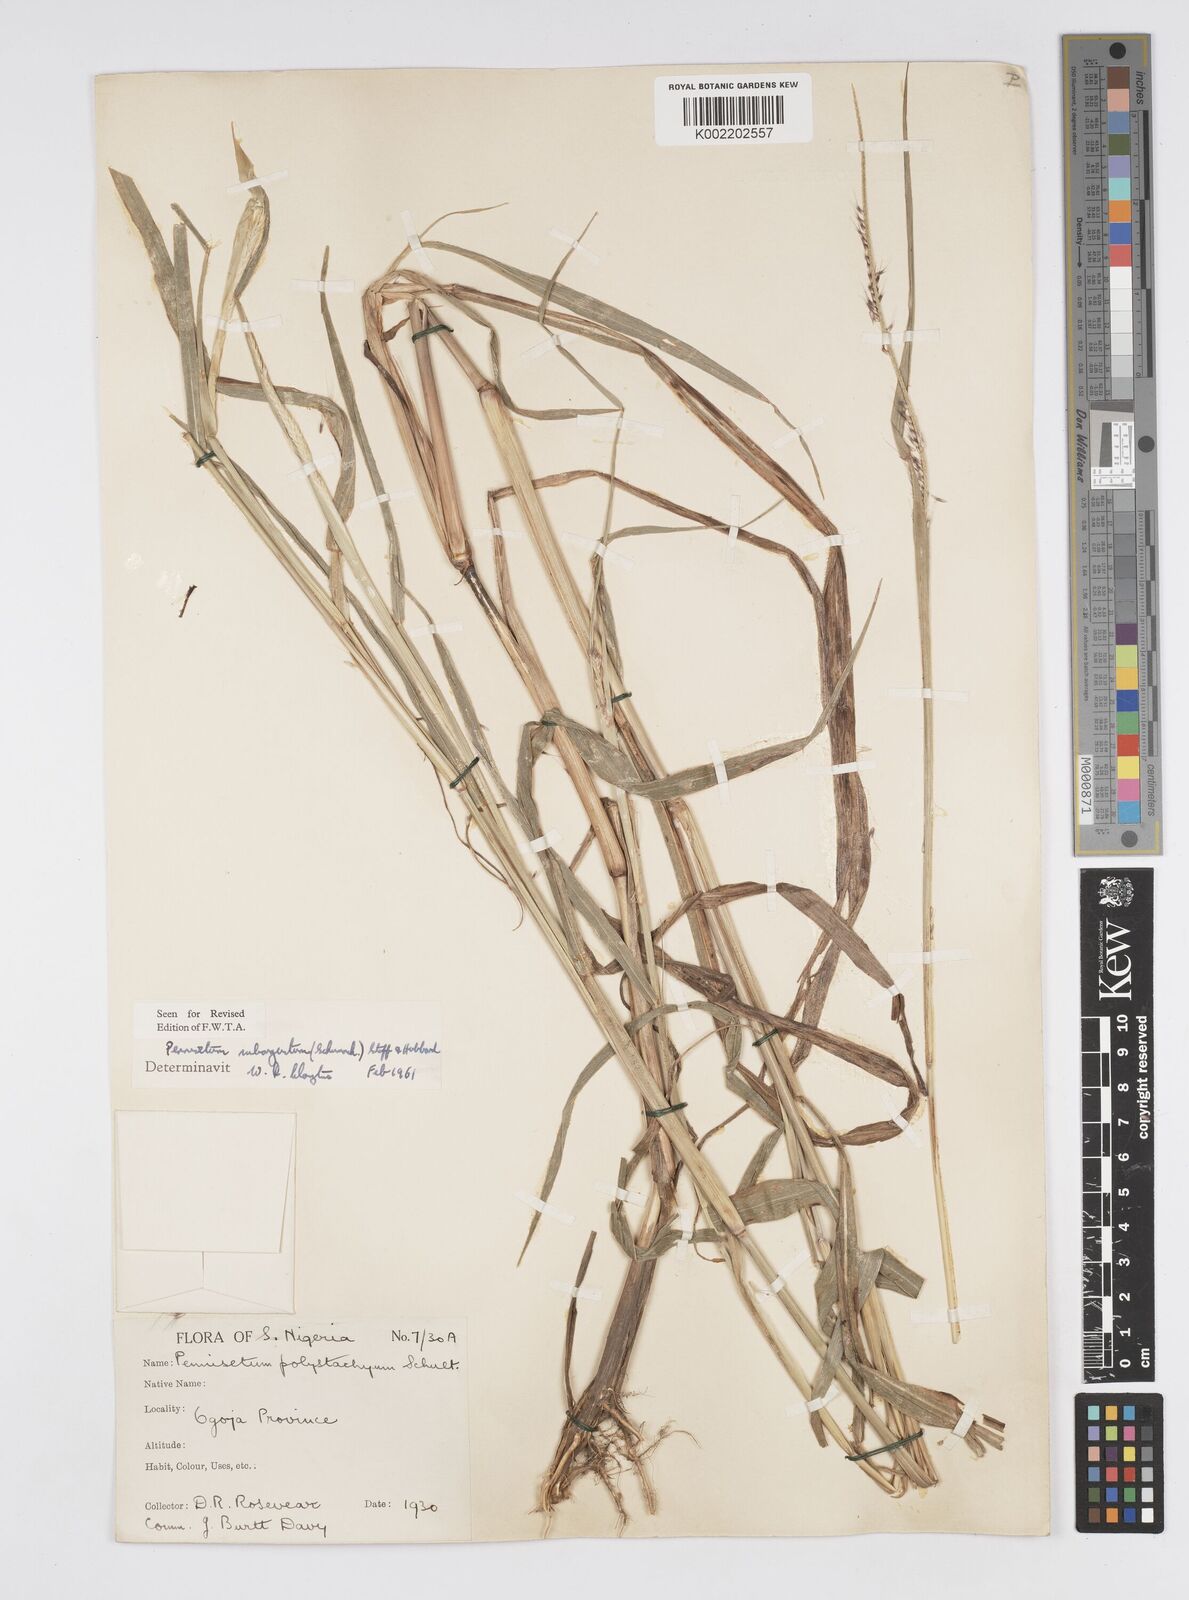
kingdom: Plantae
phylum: Tracheophyta
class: Liliopsida
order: Poales
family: Poaceae
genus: Setaria
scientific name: Setaria parviflora
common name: Knotroot bristle-grass
